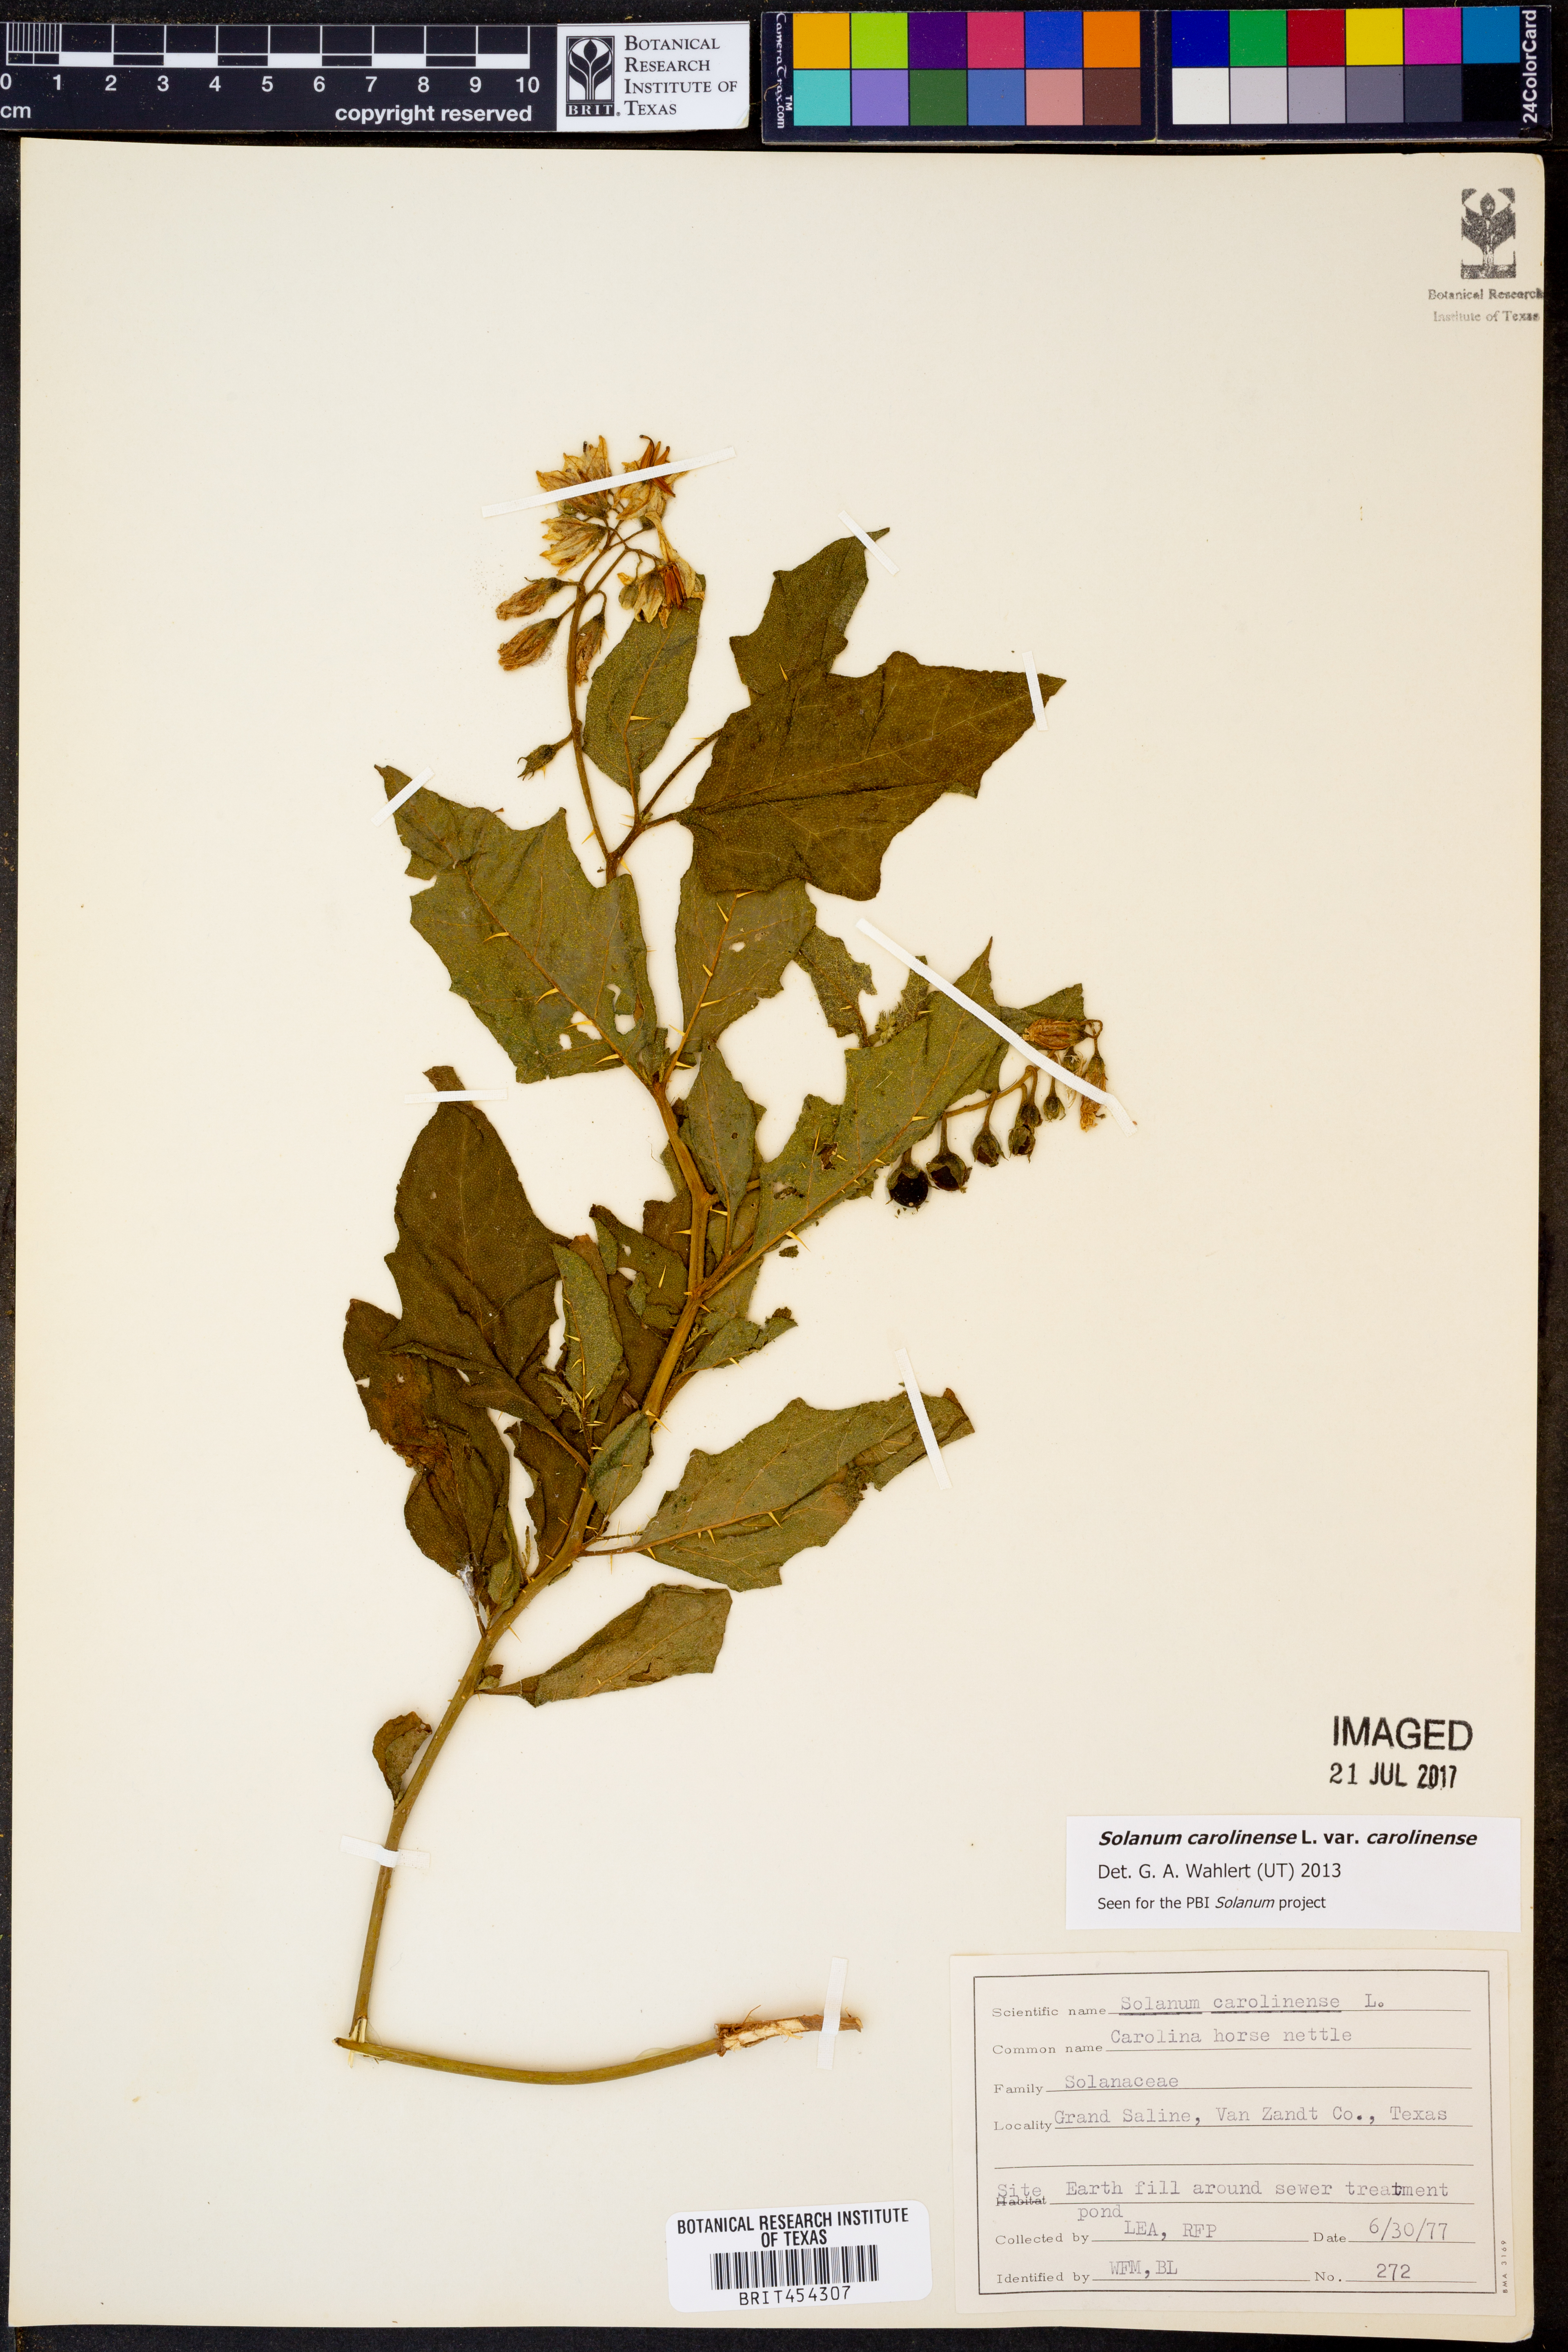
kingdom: Plantae
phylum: Tracheophyta
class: Magnoliopsida
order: Solanales
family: Solanaceae
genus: Solanum
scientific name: Solanum carolinense
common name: Horse-nettle
